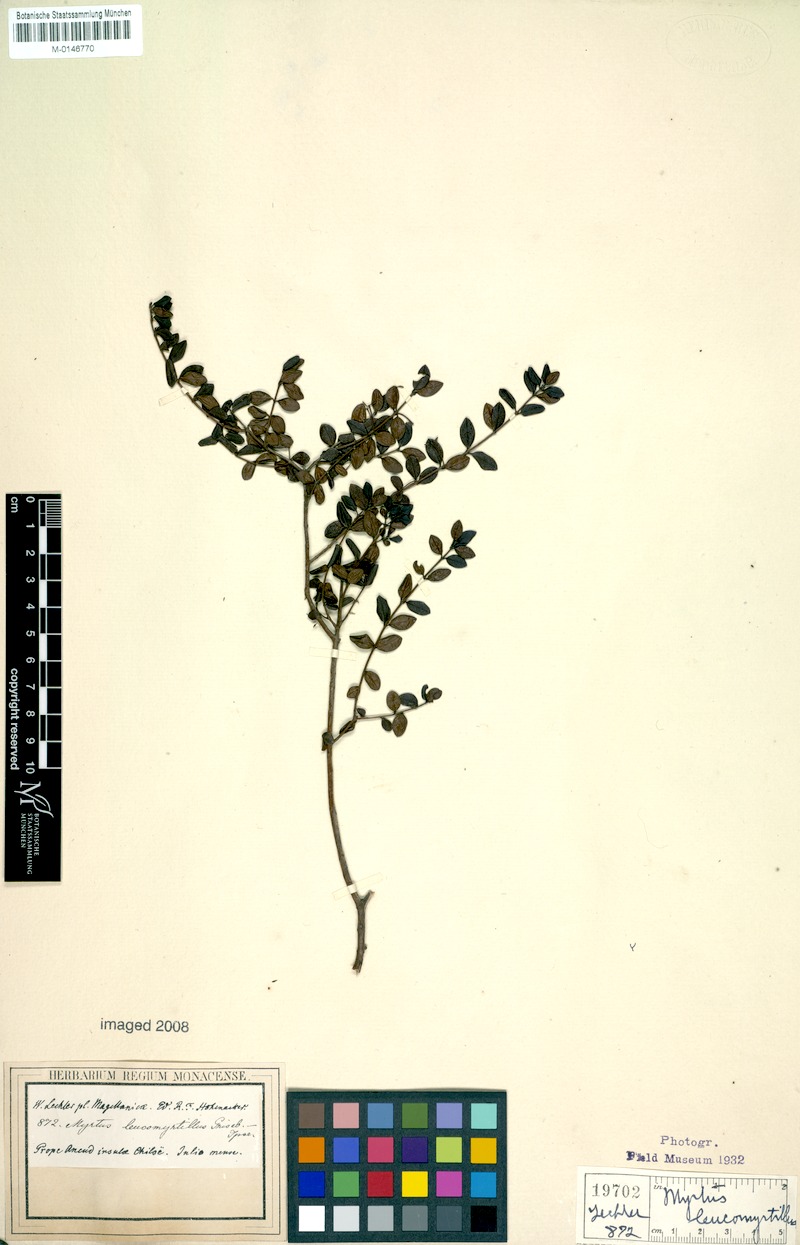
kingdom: Plantae
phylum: Tracheophyta
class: Magnoliopsida
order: Myrtales
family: Myrtaceae
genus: Myrteola
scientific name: Myrteola nummularia
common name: Cranberry-myrtle
